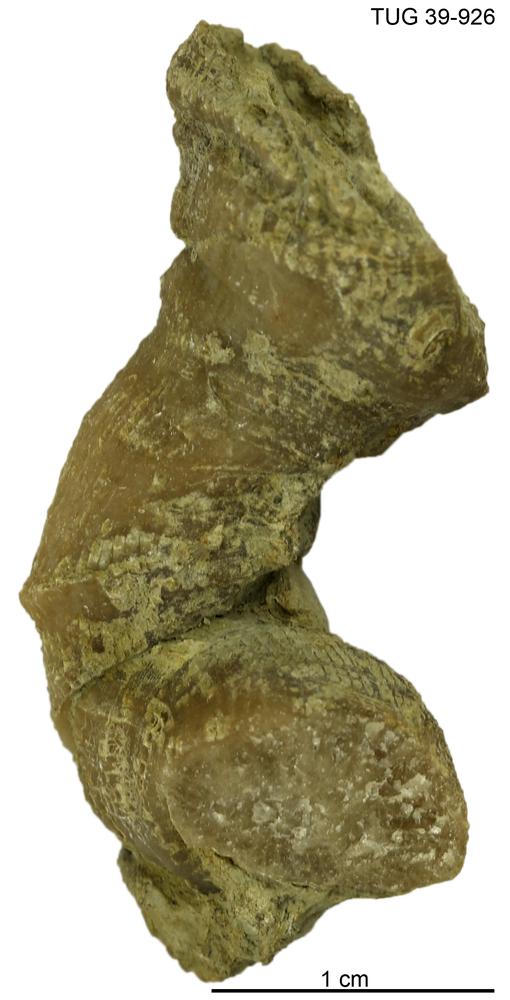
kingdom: Animalia
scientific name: Animalia
